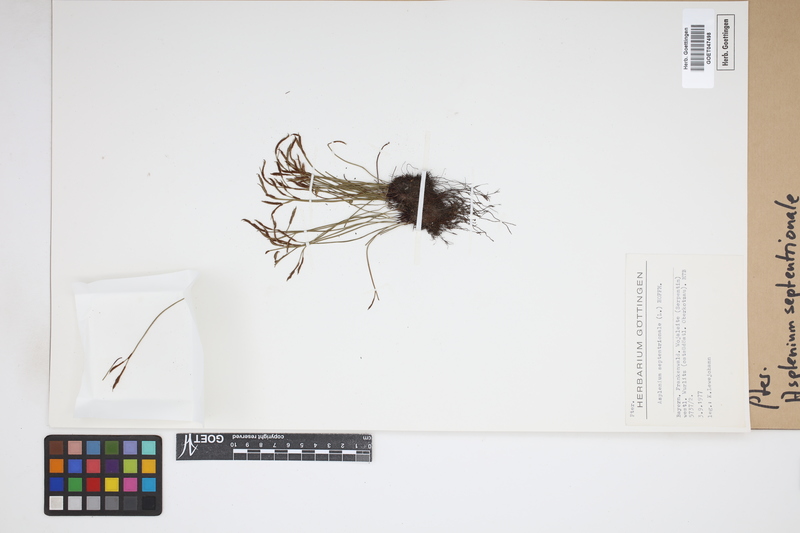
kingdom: Plantae
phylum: Tracheophyta
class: Polypodiopsida
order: Polypodiales
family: Aspleniaceae
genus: Asplenium
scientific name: Asplenium septentrionale
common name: Forked spleenwort
